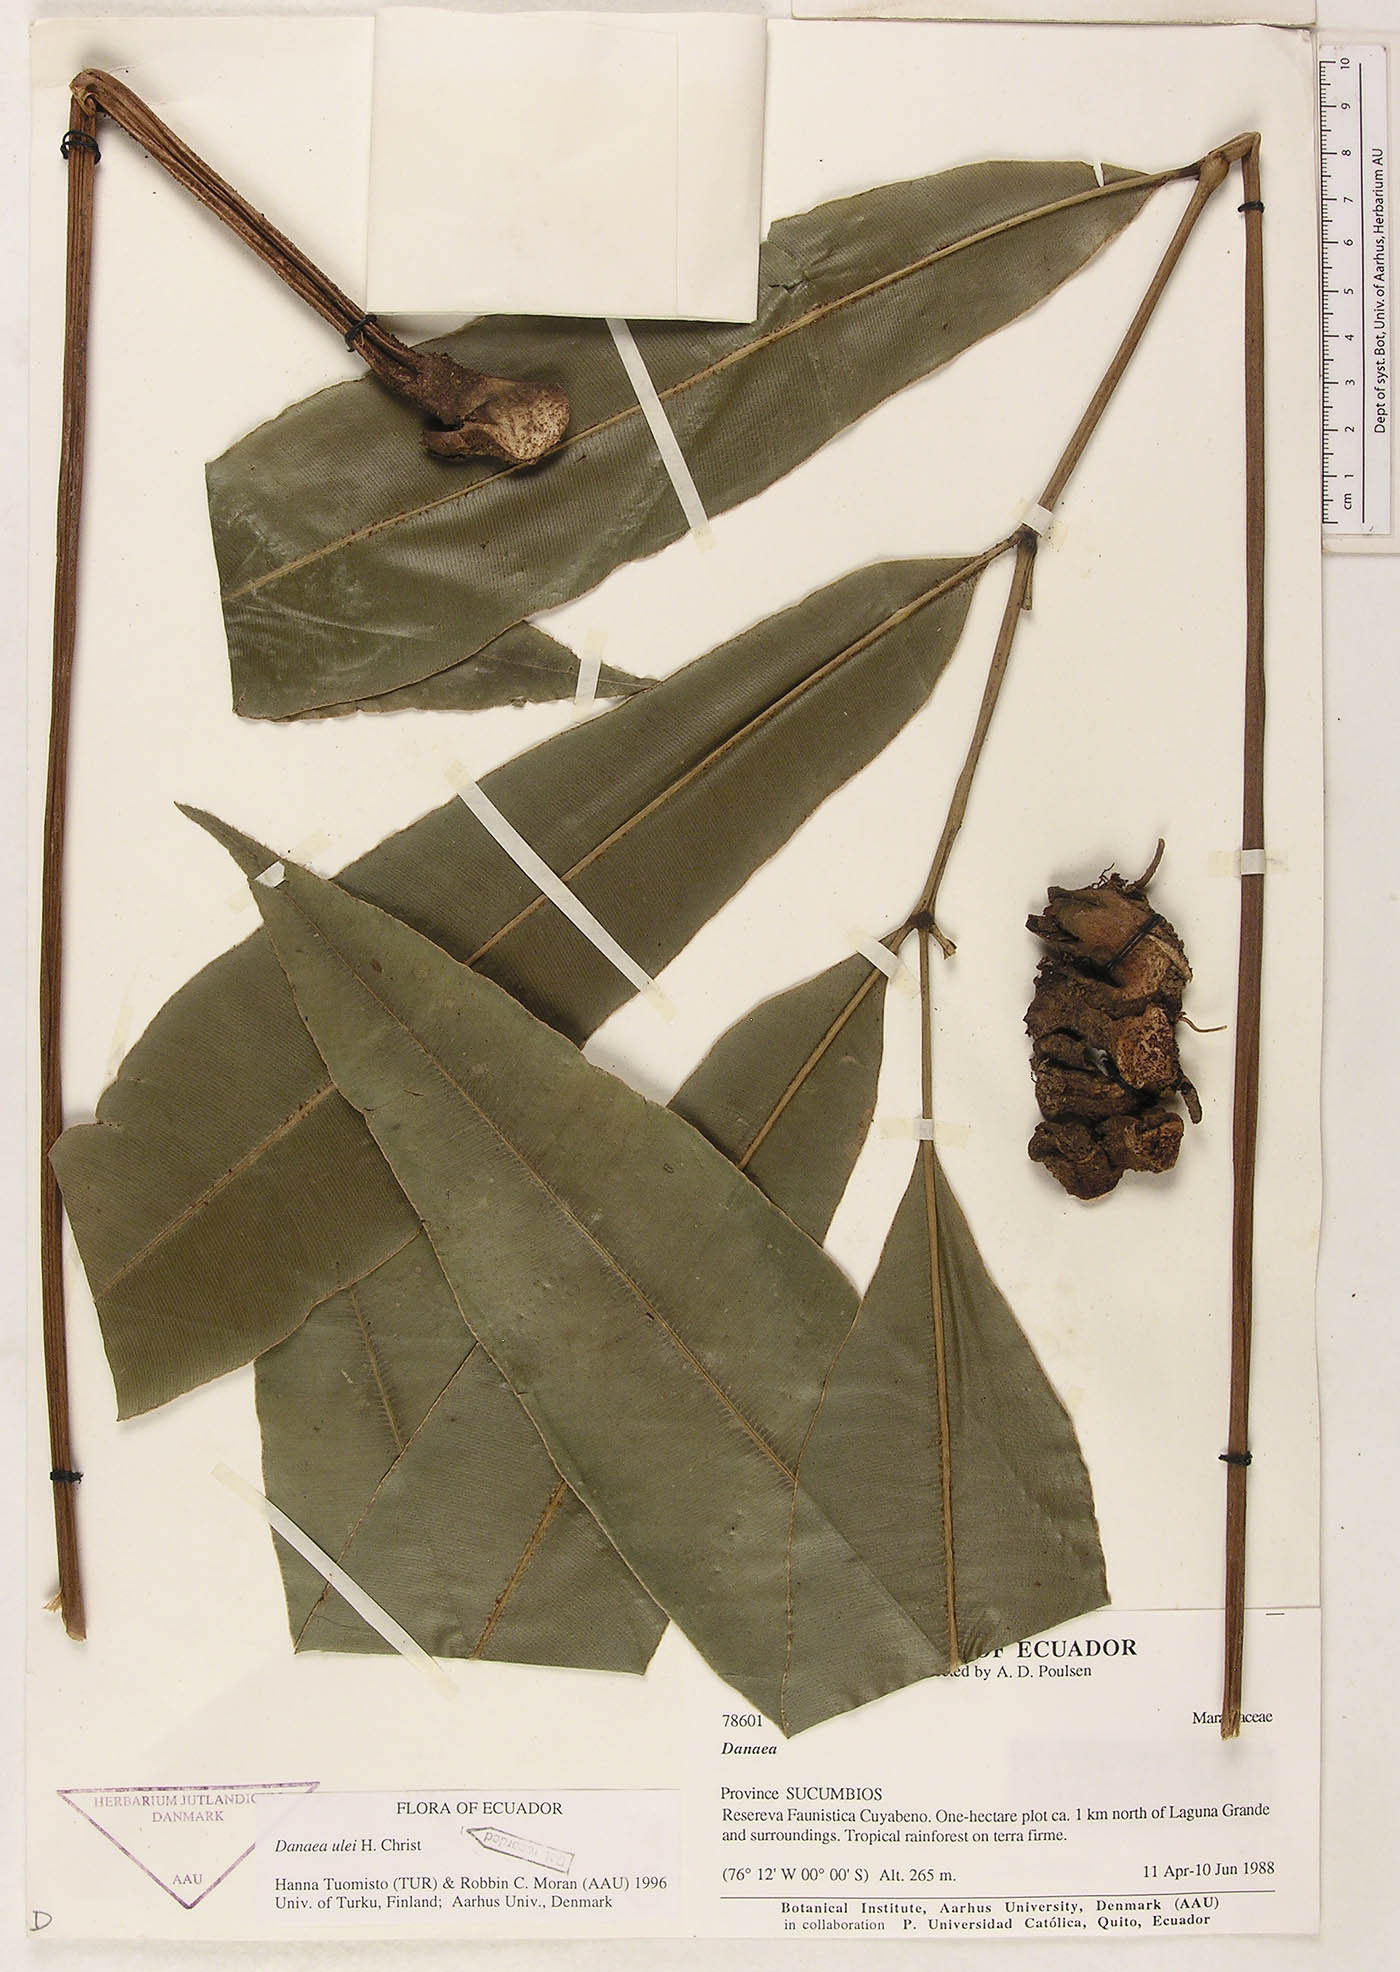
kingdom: Plantae
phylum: Tracheophyta
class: Polypodiopsida
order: Marattiales
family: Marattiaceae
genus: Danaea
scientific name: Danaea cartilaginea
